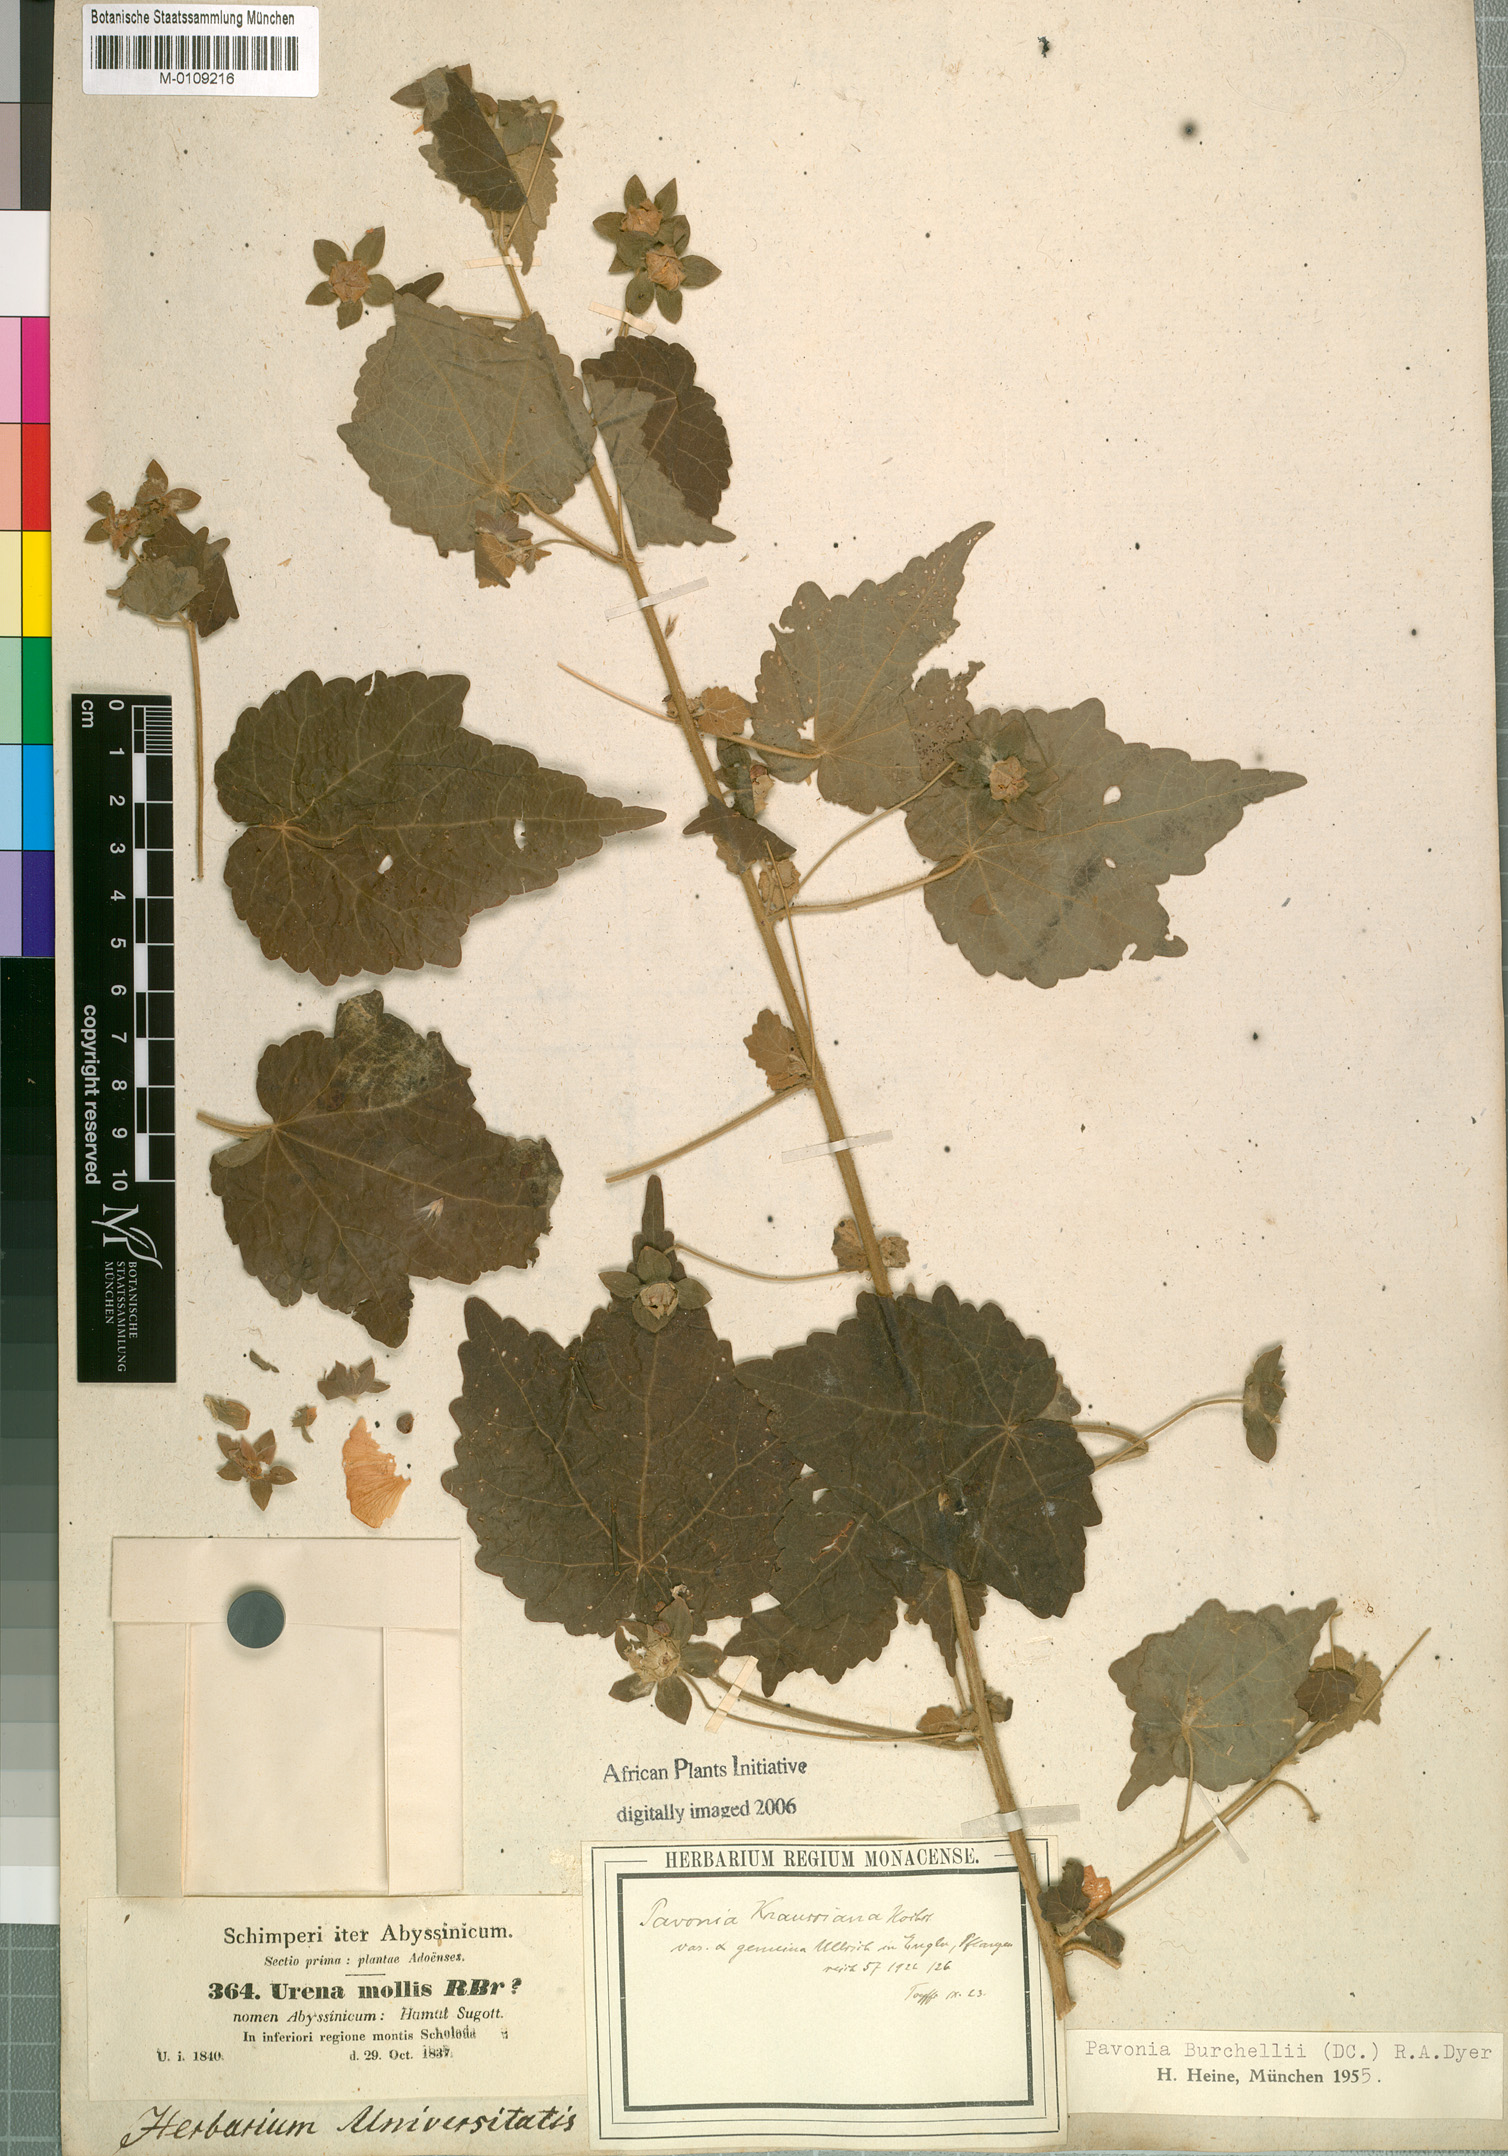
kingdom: Plantae
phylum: Tracheophyta
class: Magnoliopsida
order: Malvales
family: Malvaceae
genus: Pavonia
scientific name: Pavonia burchellii
